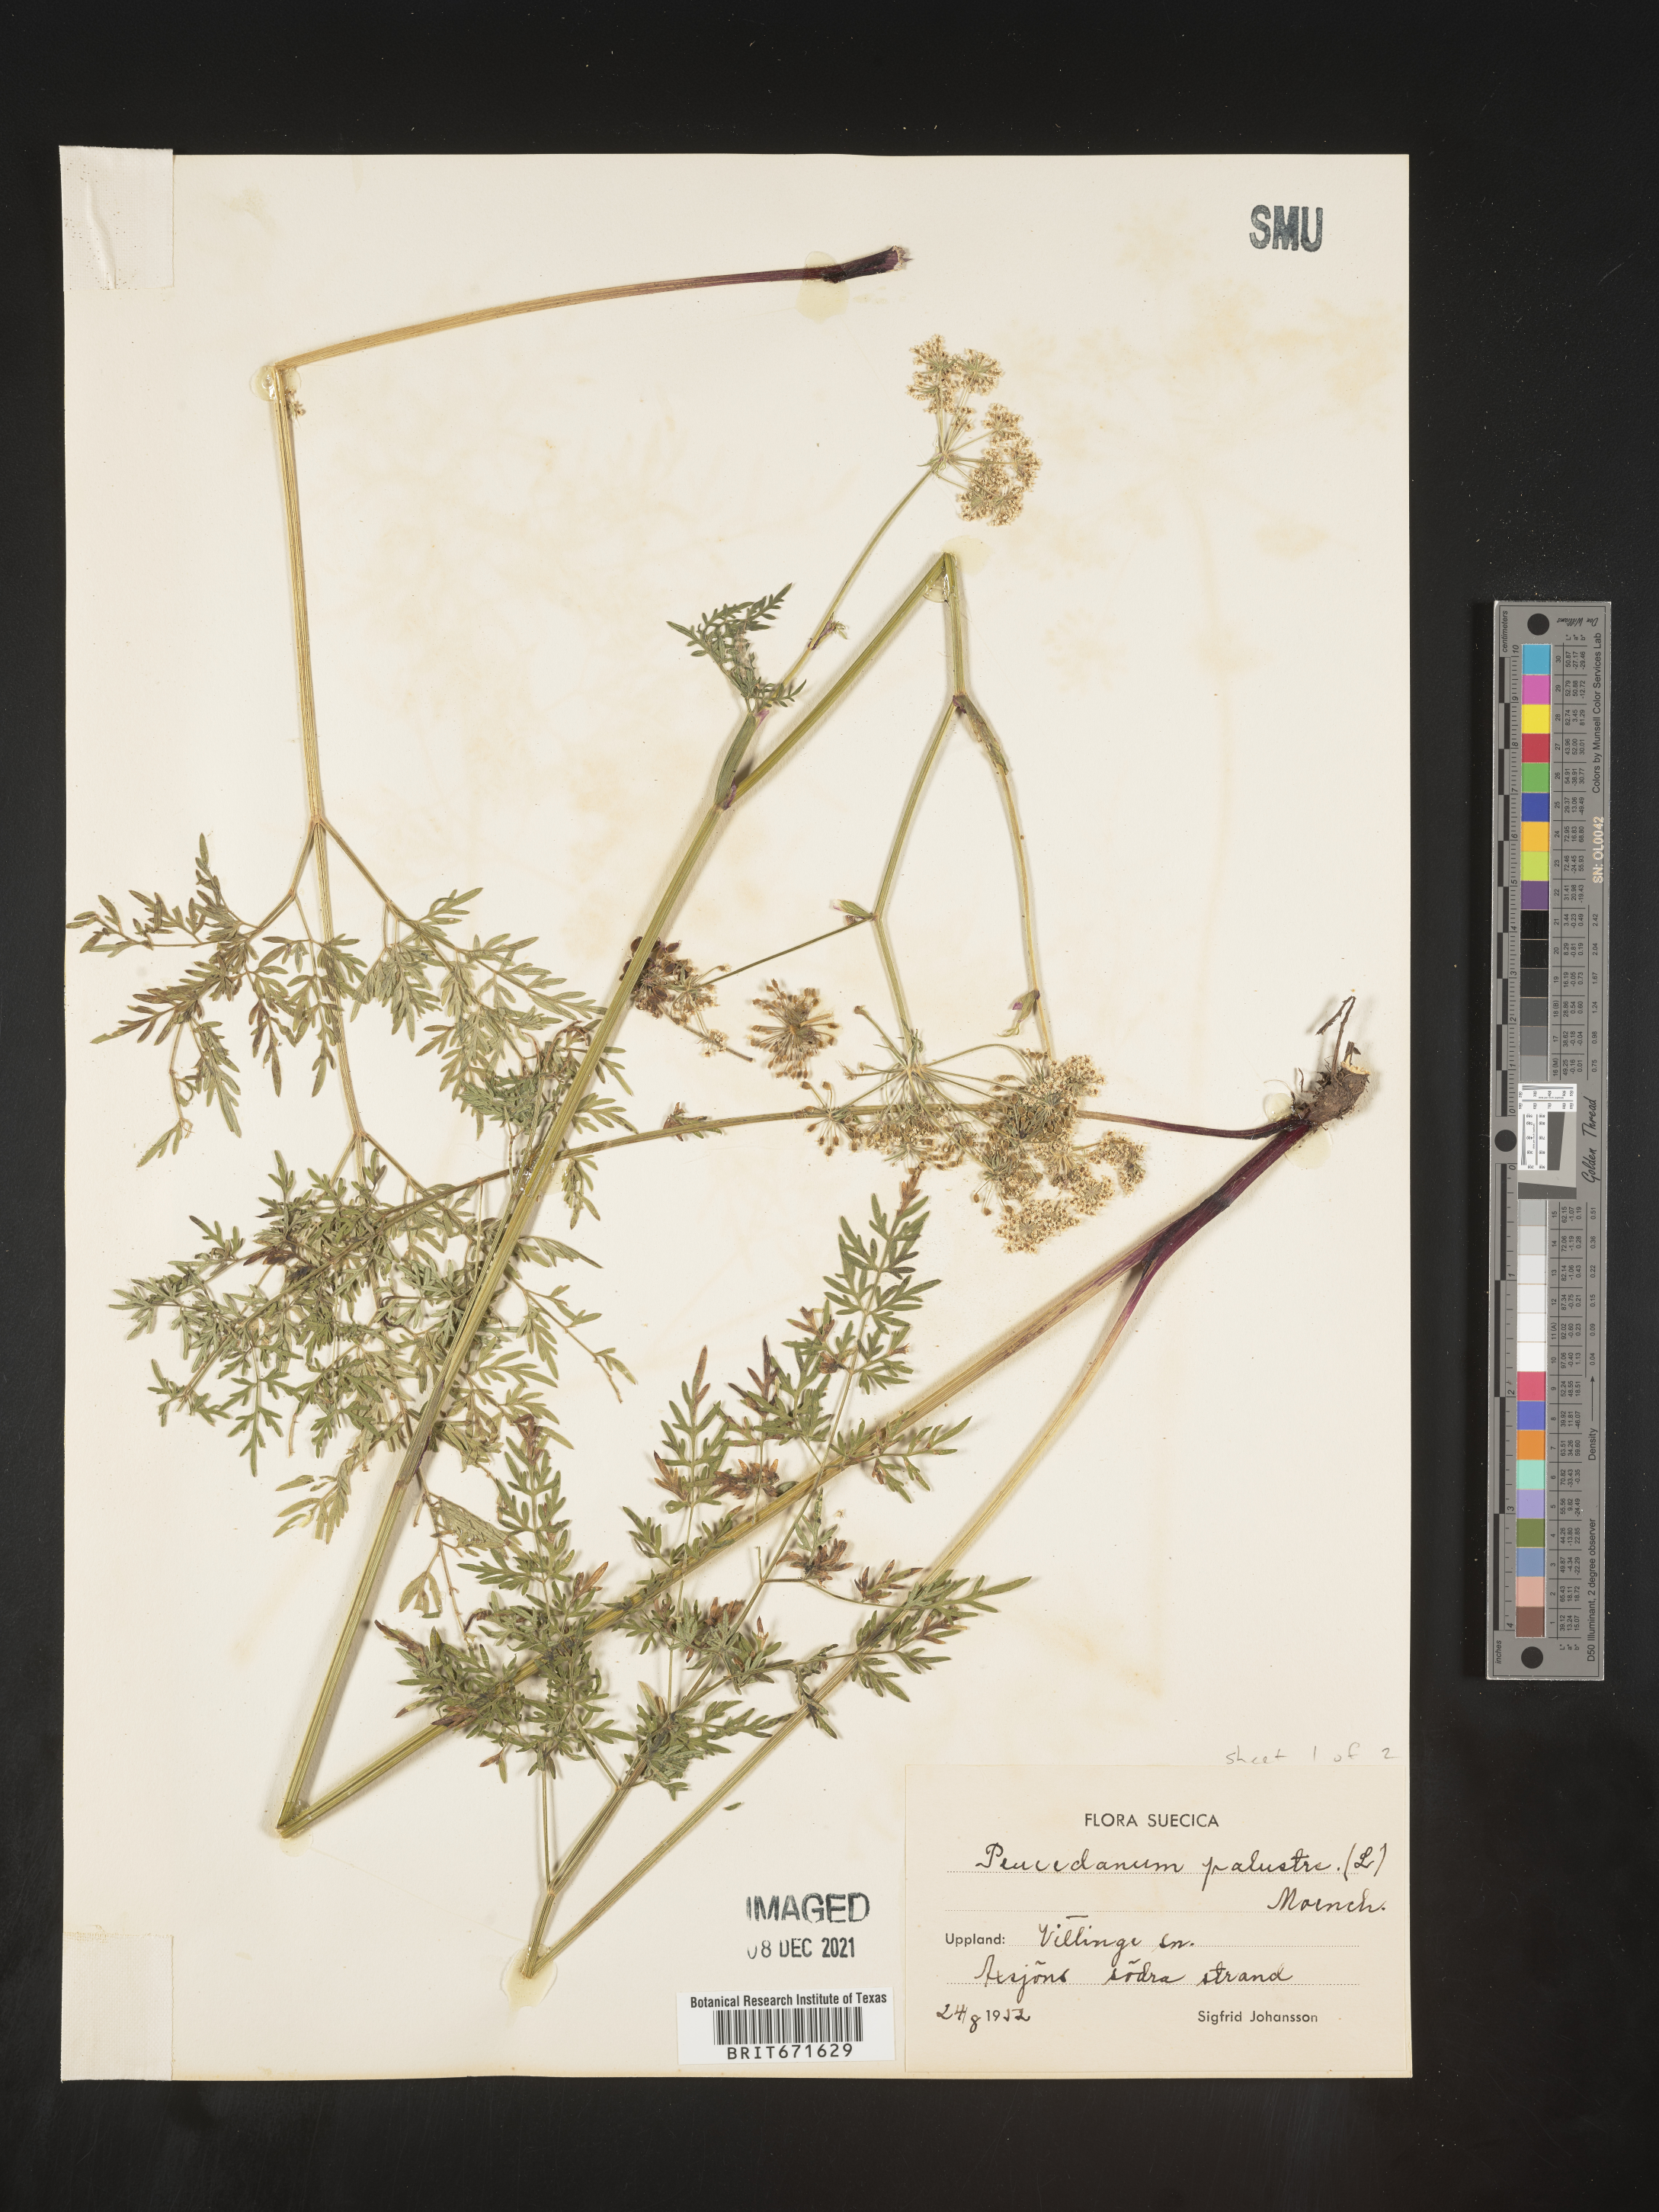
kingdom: Plantae
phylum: Tracheophyta
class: Magnoliopsida
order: Apiales
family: Apiaceae
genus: Peucedanum
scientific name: Peucedanum
